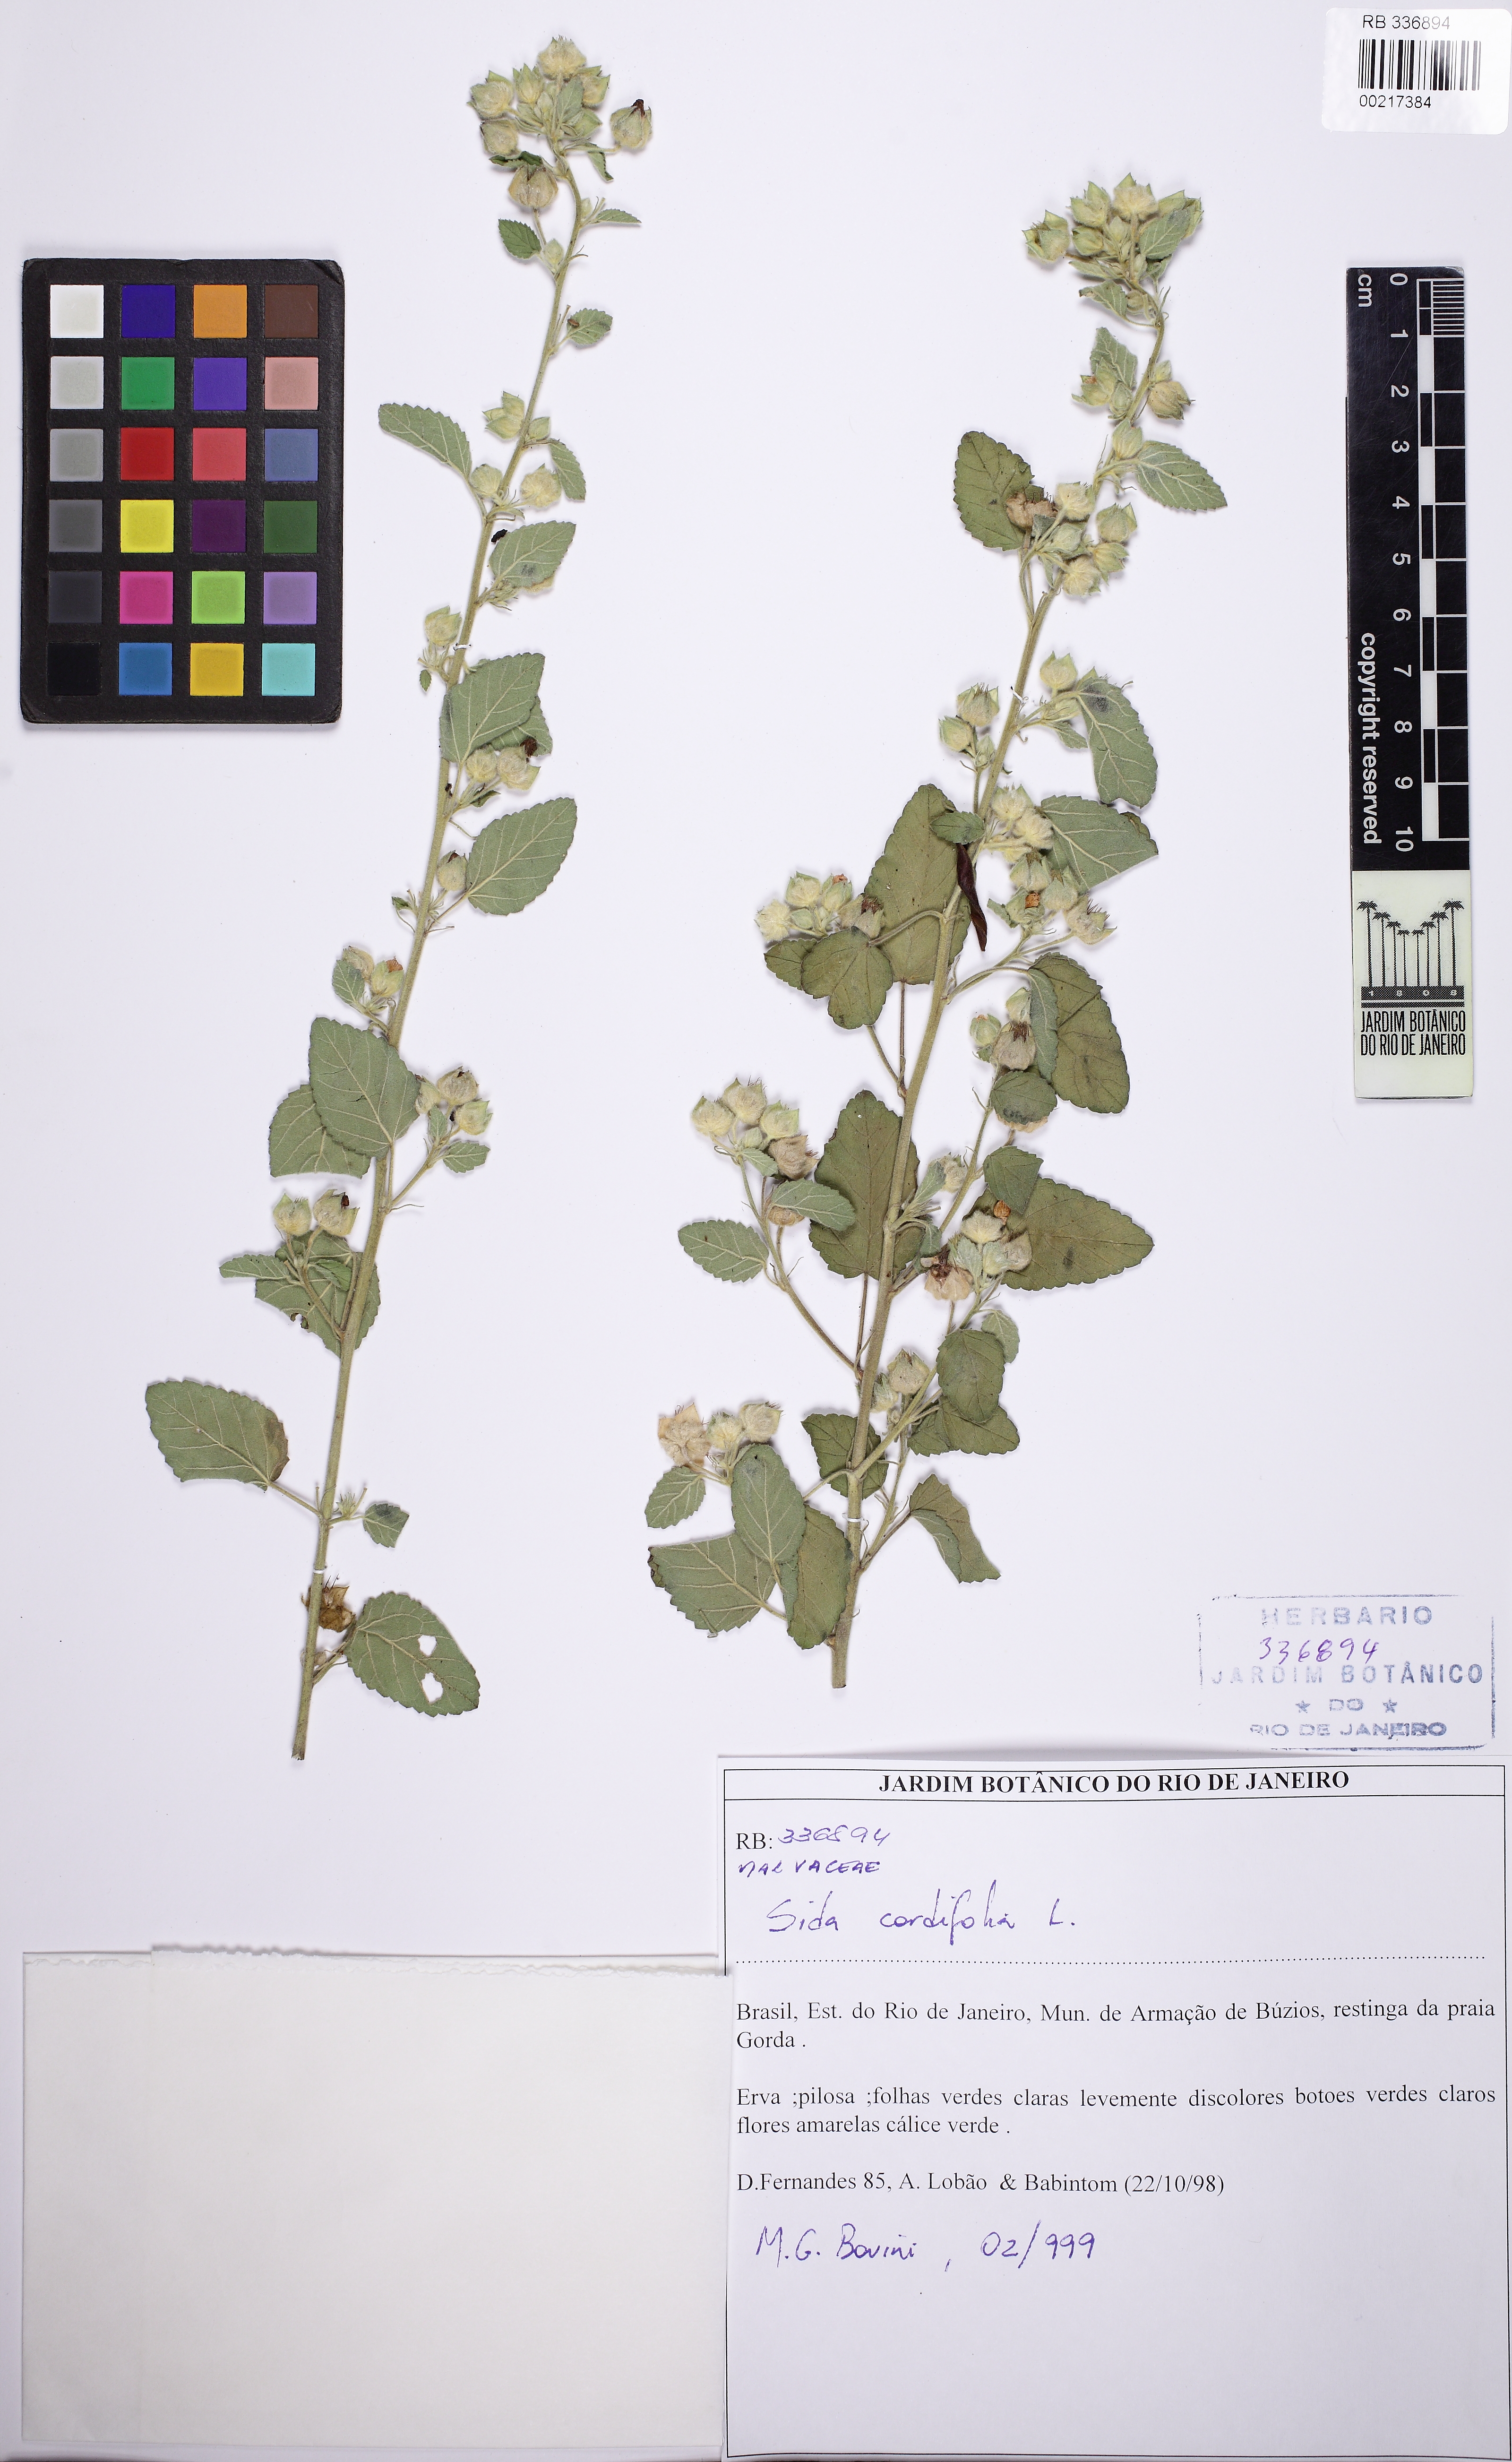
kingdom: Plantae
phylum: Tracheophyta
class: Magnoliopsida
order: Malvales
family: Malvaceae
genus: Sida
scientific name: Sida cordifolia
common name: Ilima
